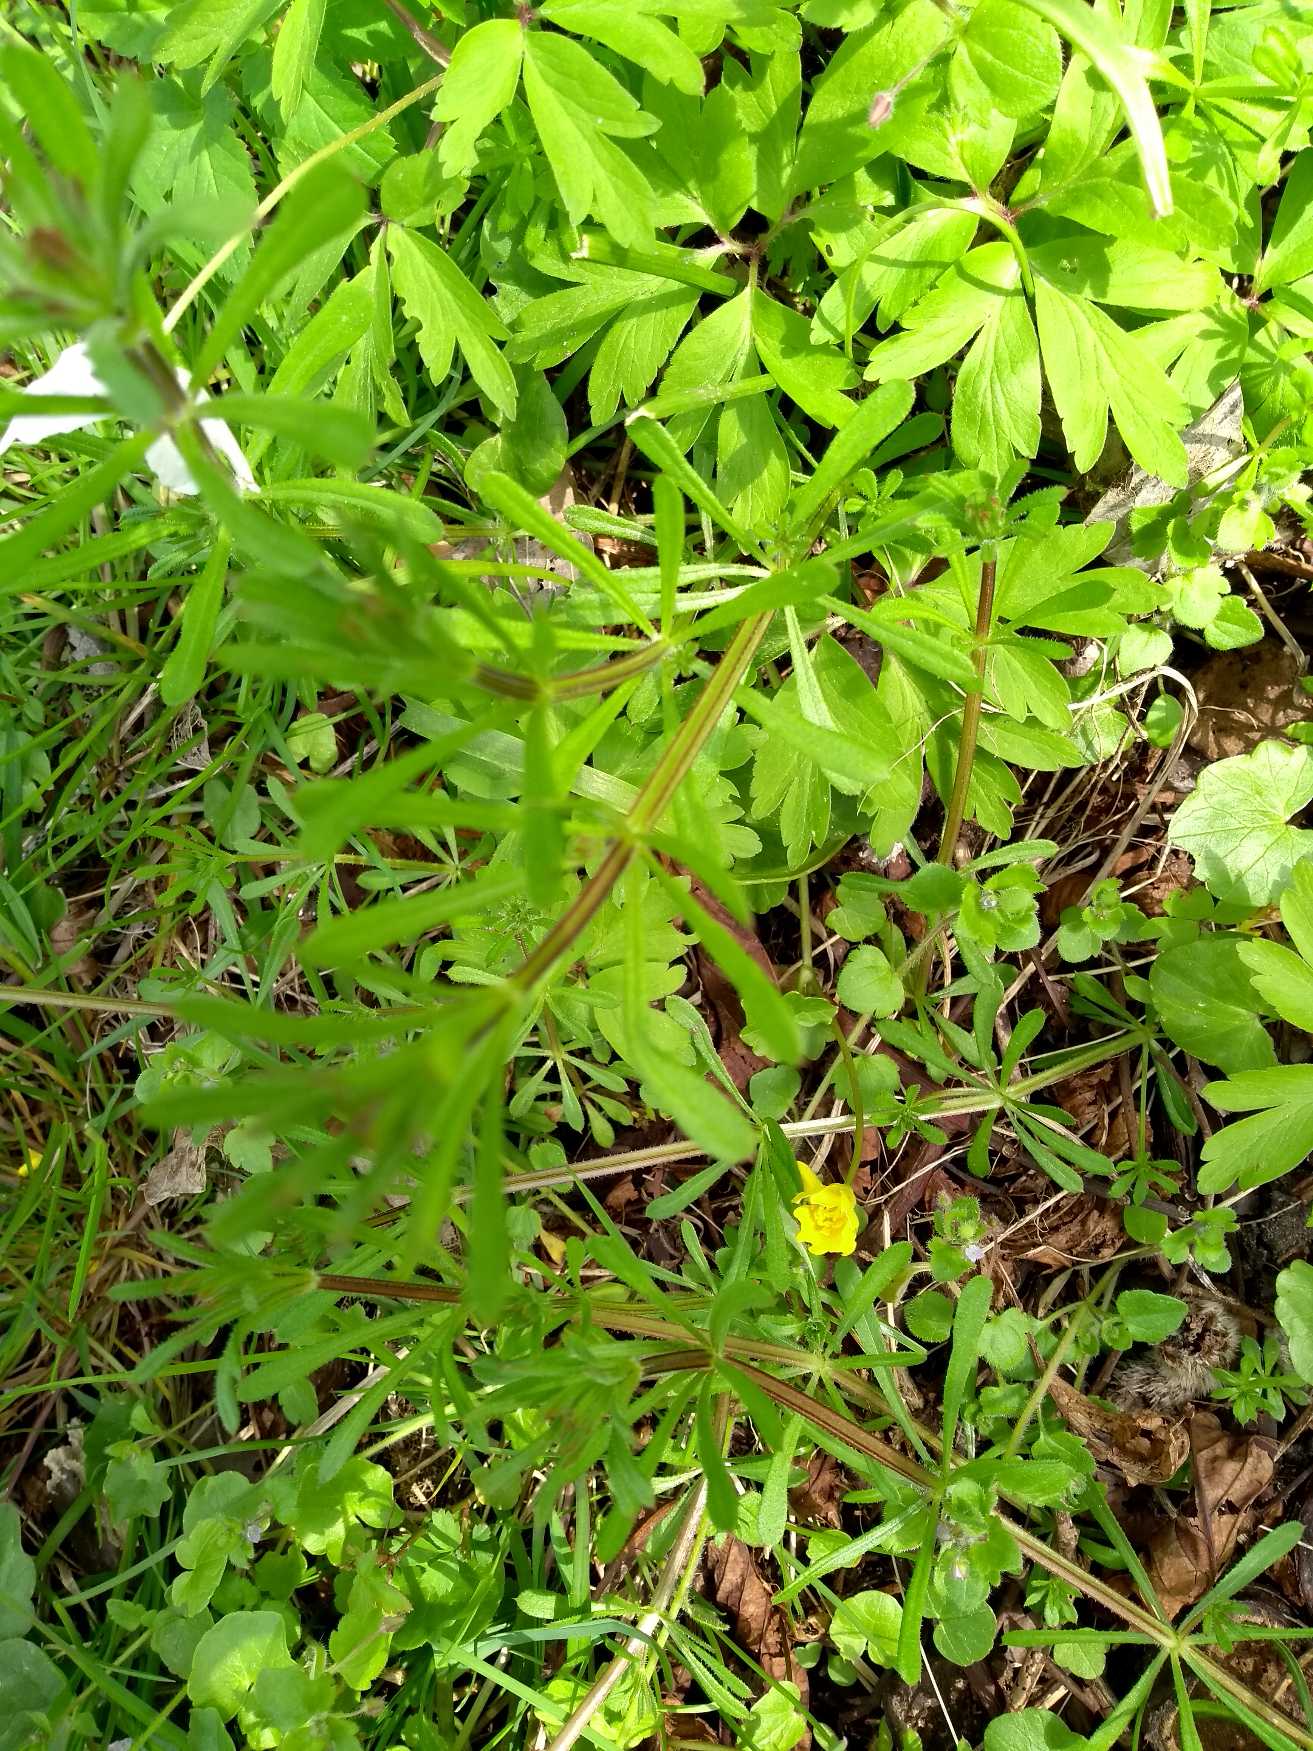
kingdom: Plantae
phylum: Tracheophyta
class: Magnoliopsida
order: Gentianales
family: Rubiaceae
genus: Galium
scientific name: Galium aparine
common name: Burre-snerre
